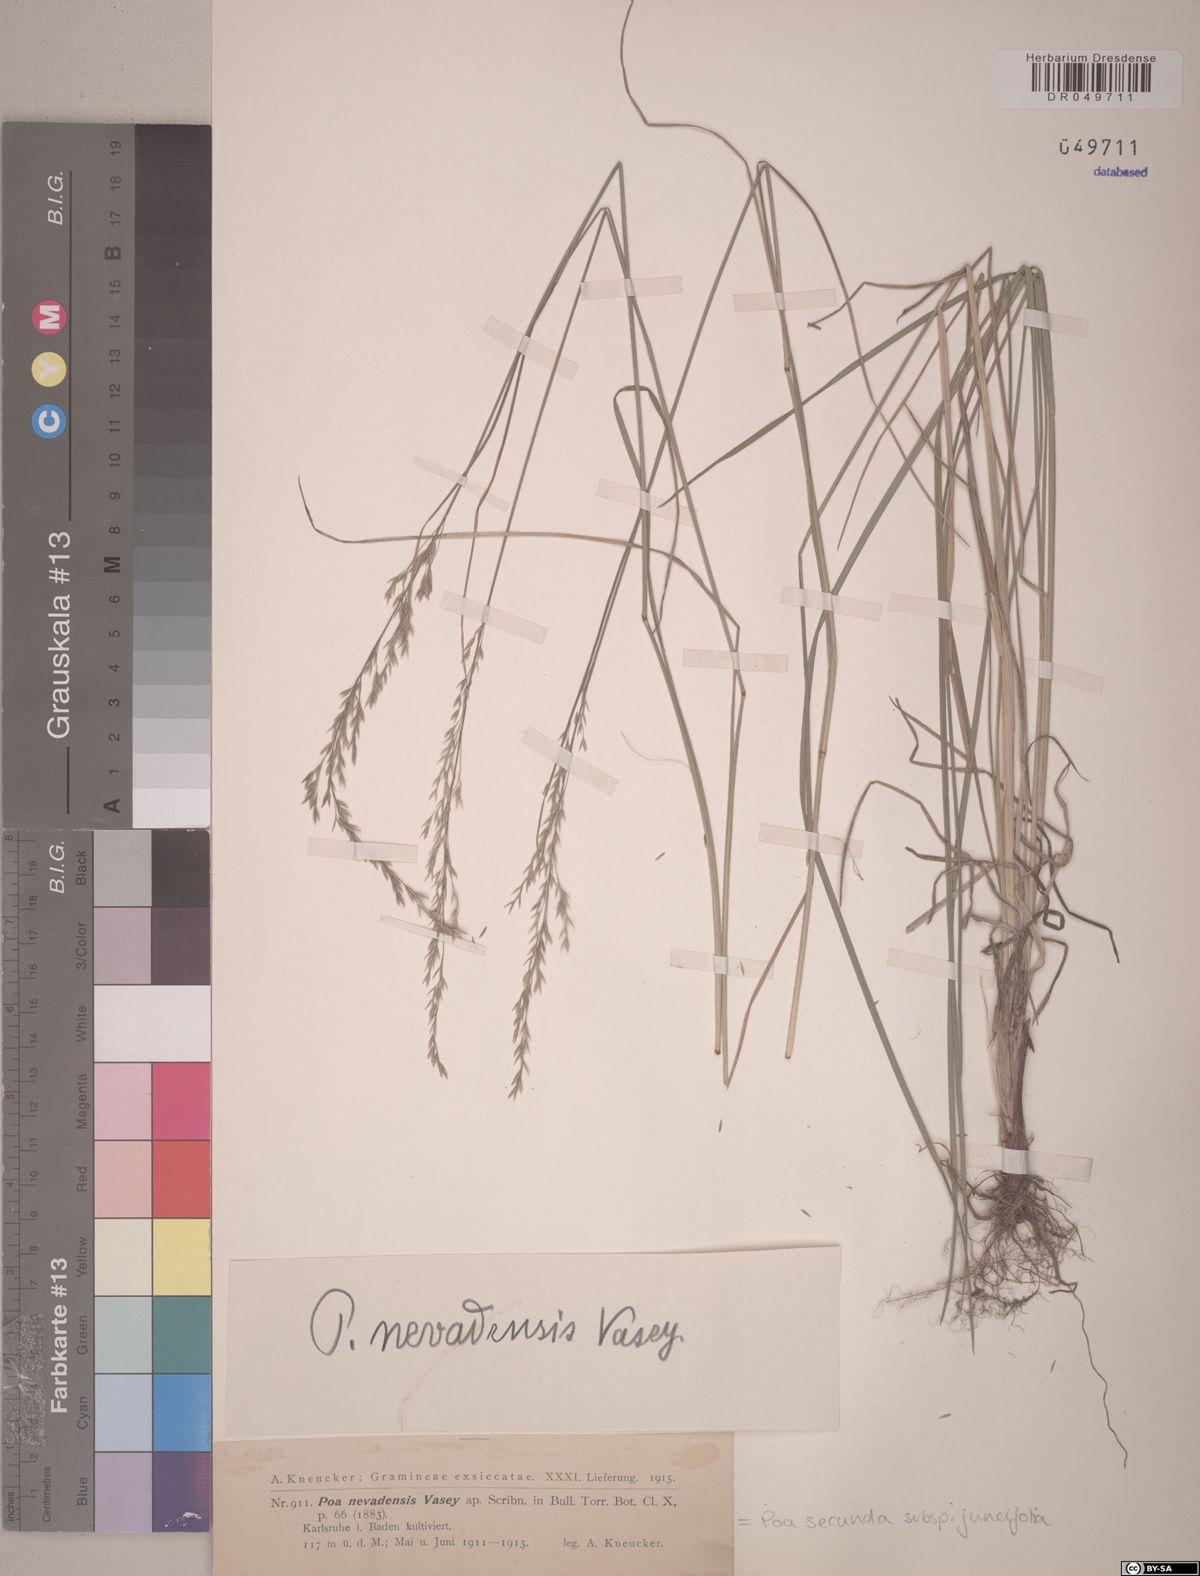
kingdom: Plantae
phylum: Tracheophyta
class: Liliopsida
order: Poales
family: Poaceae
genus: Poa
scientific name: Poa secunda
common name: Sandberg bluegrass
